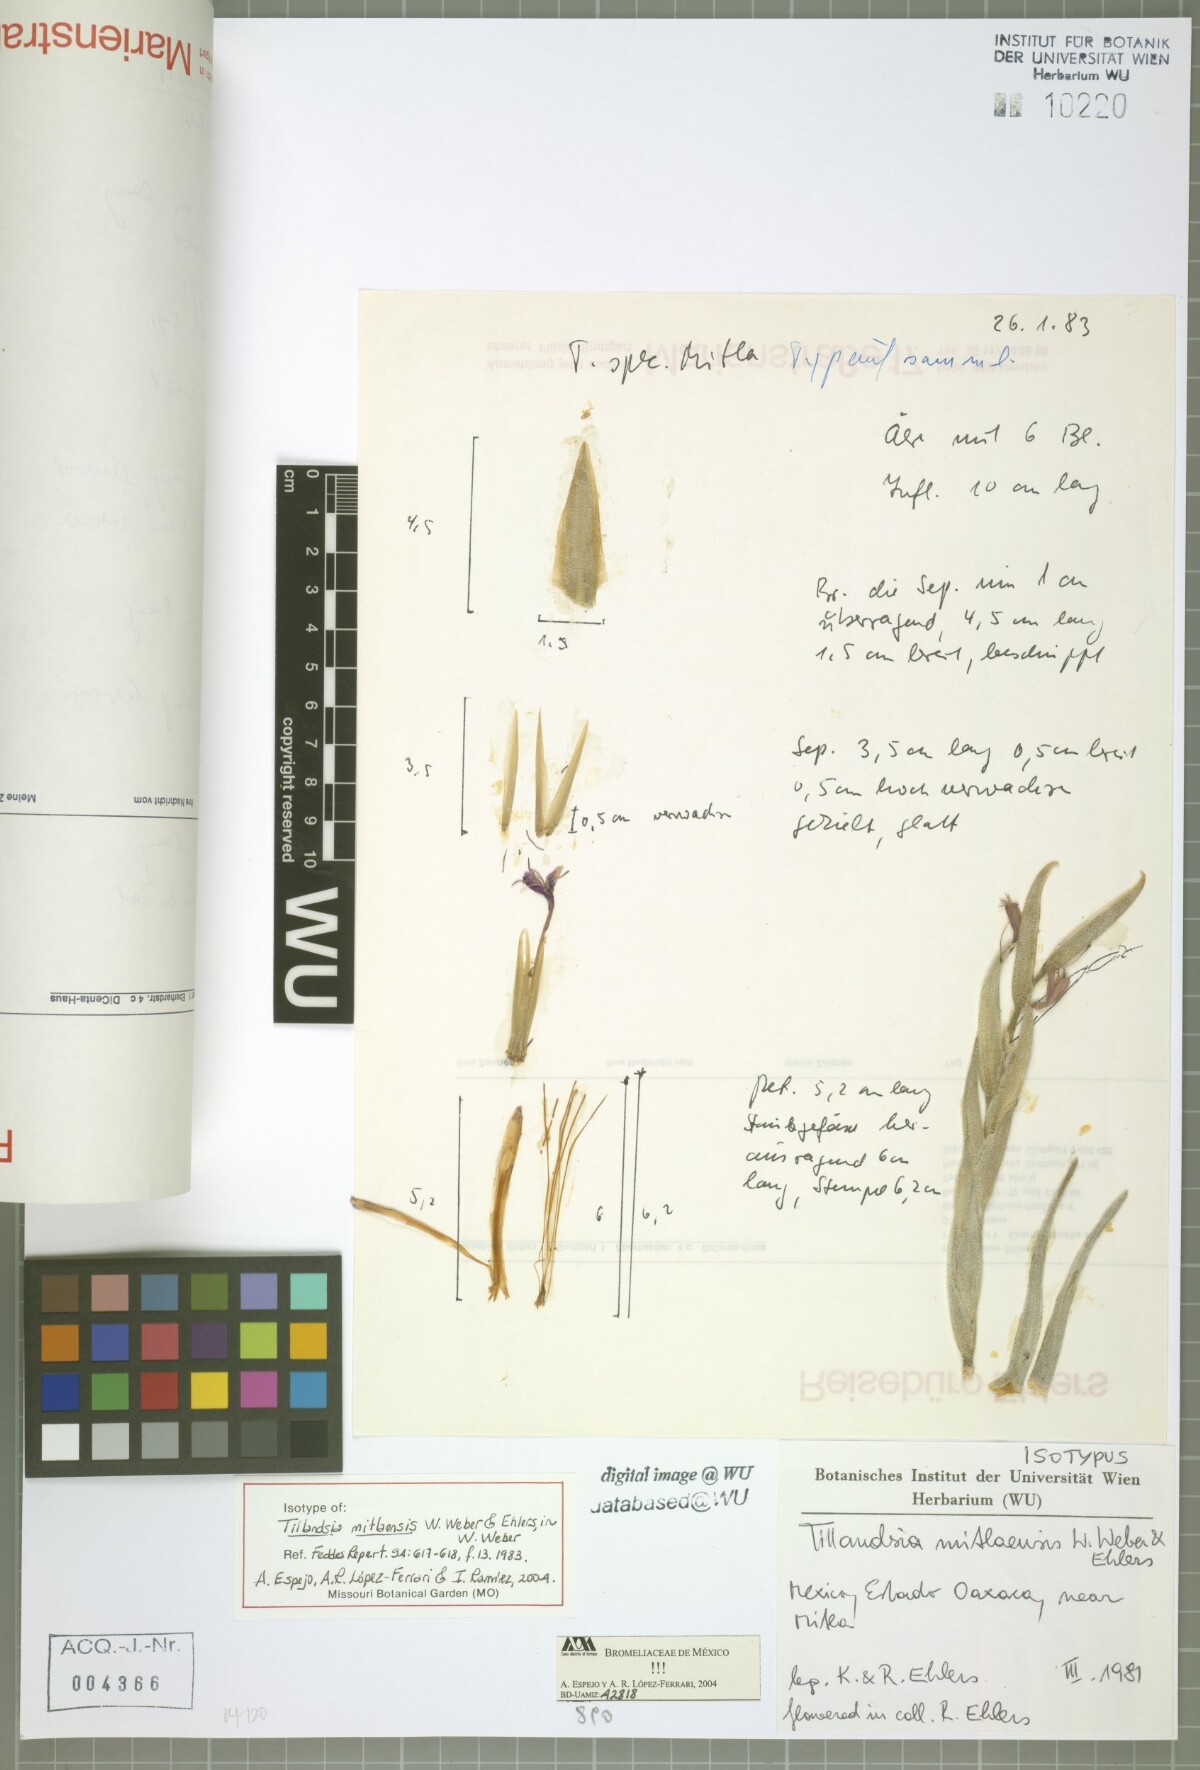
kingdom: Plantae
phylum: Tracheophyta
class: Liliopsida
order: Poales
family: Bromeliaceae
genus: Tillandsia
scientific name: Tillandsia mitlaensis
